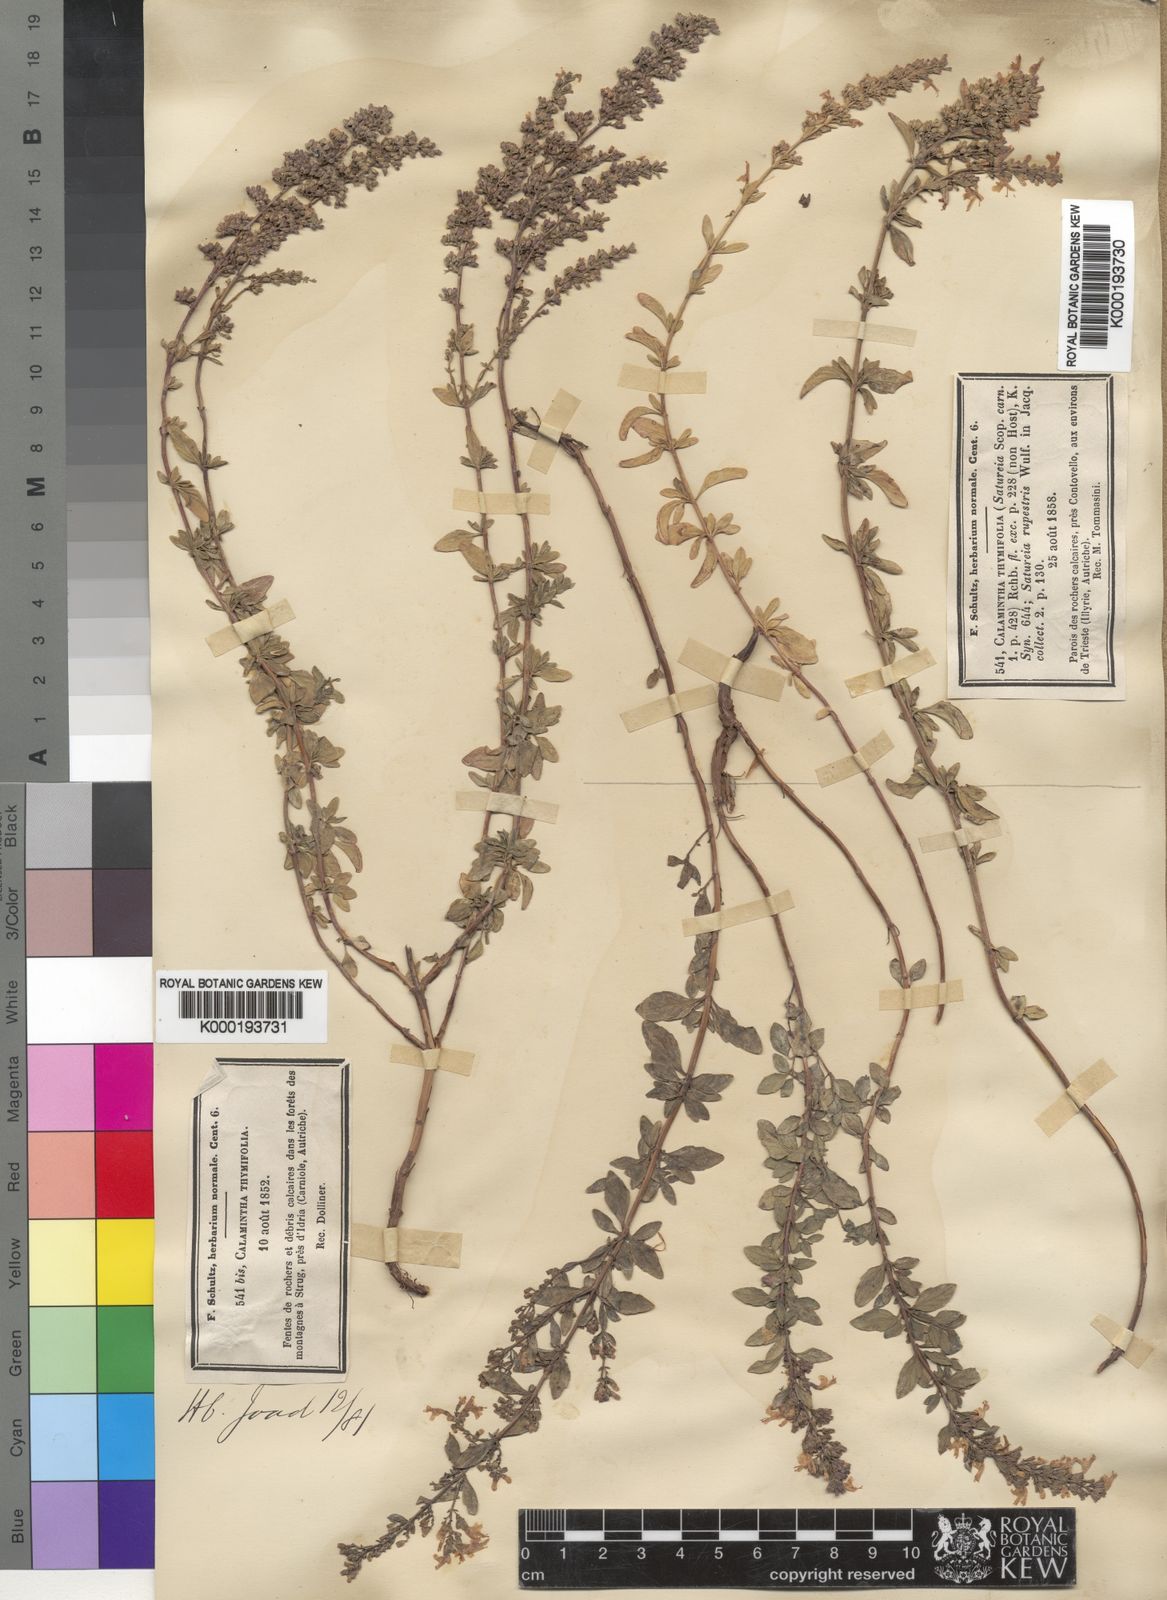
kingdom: Plantae
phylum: Tracheophyta
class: Magnoliopsida
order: Lamiales
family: Lamiaceae
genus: Micromeria
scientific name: Micromeria
